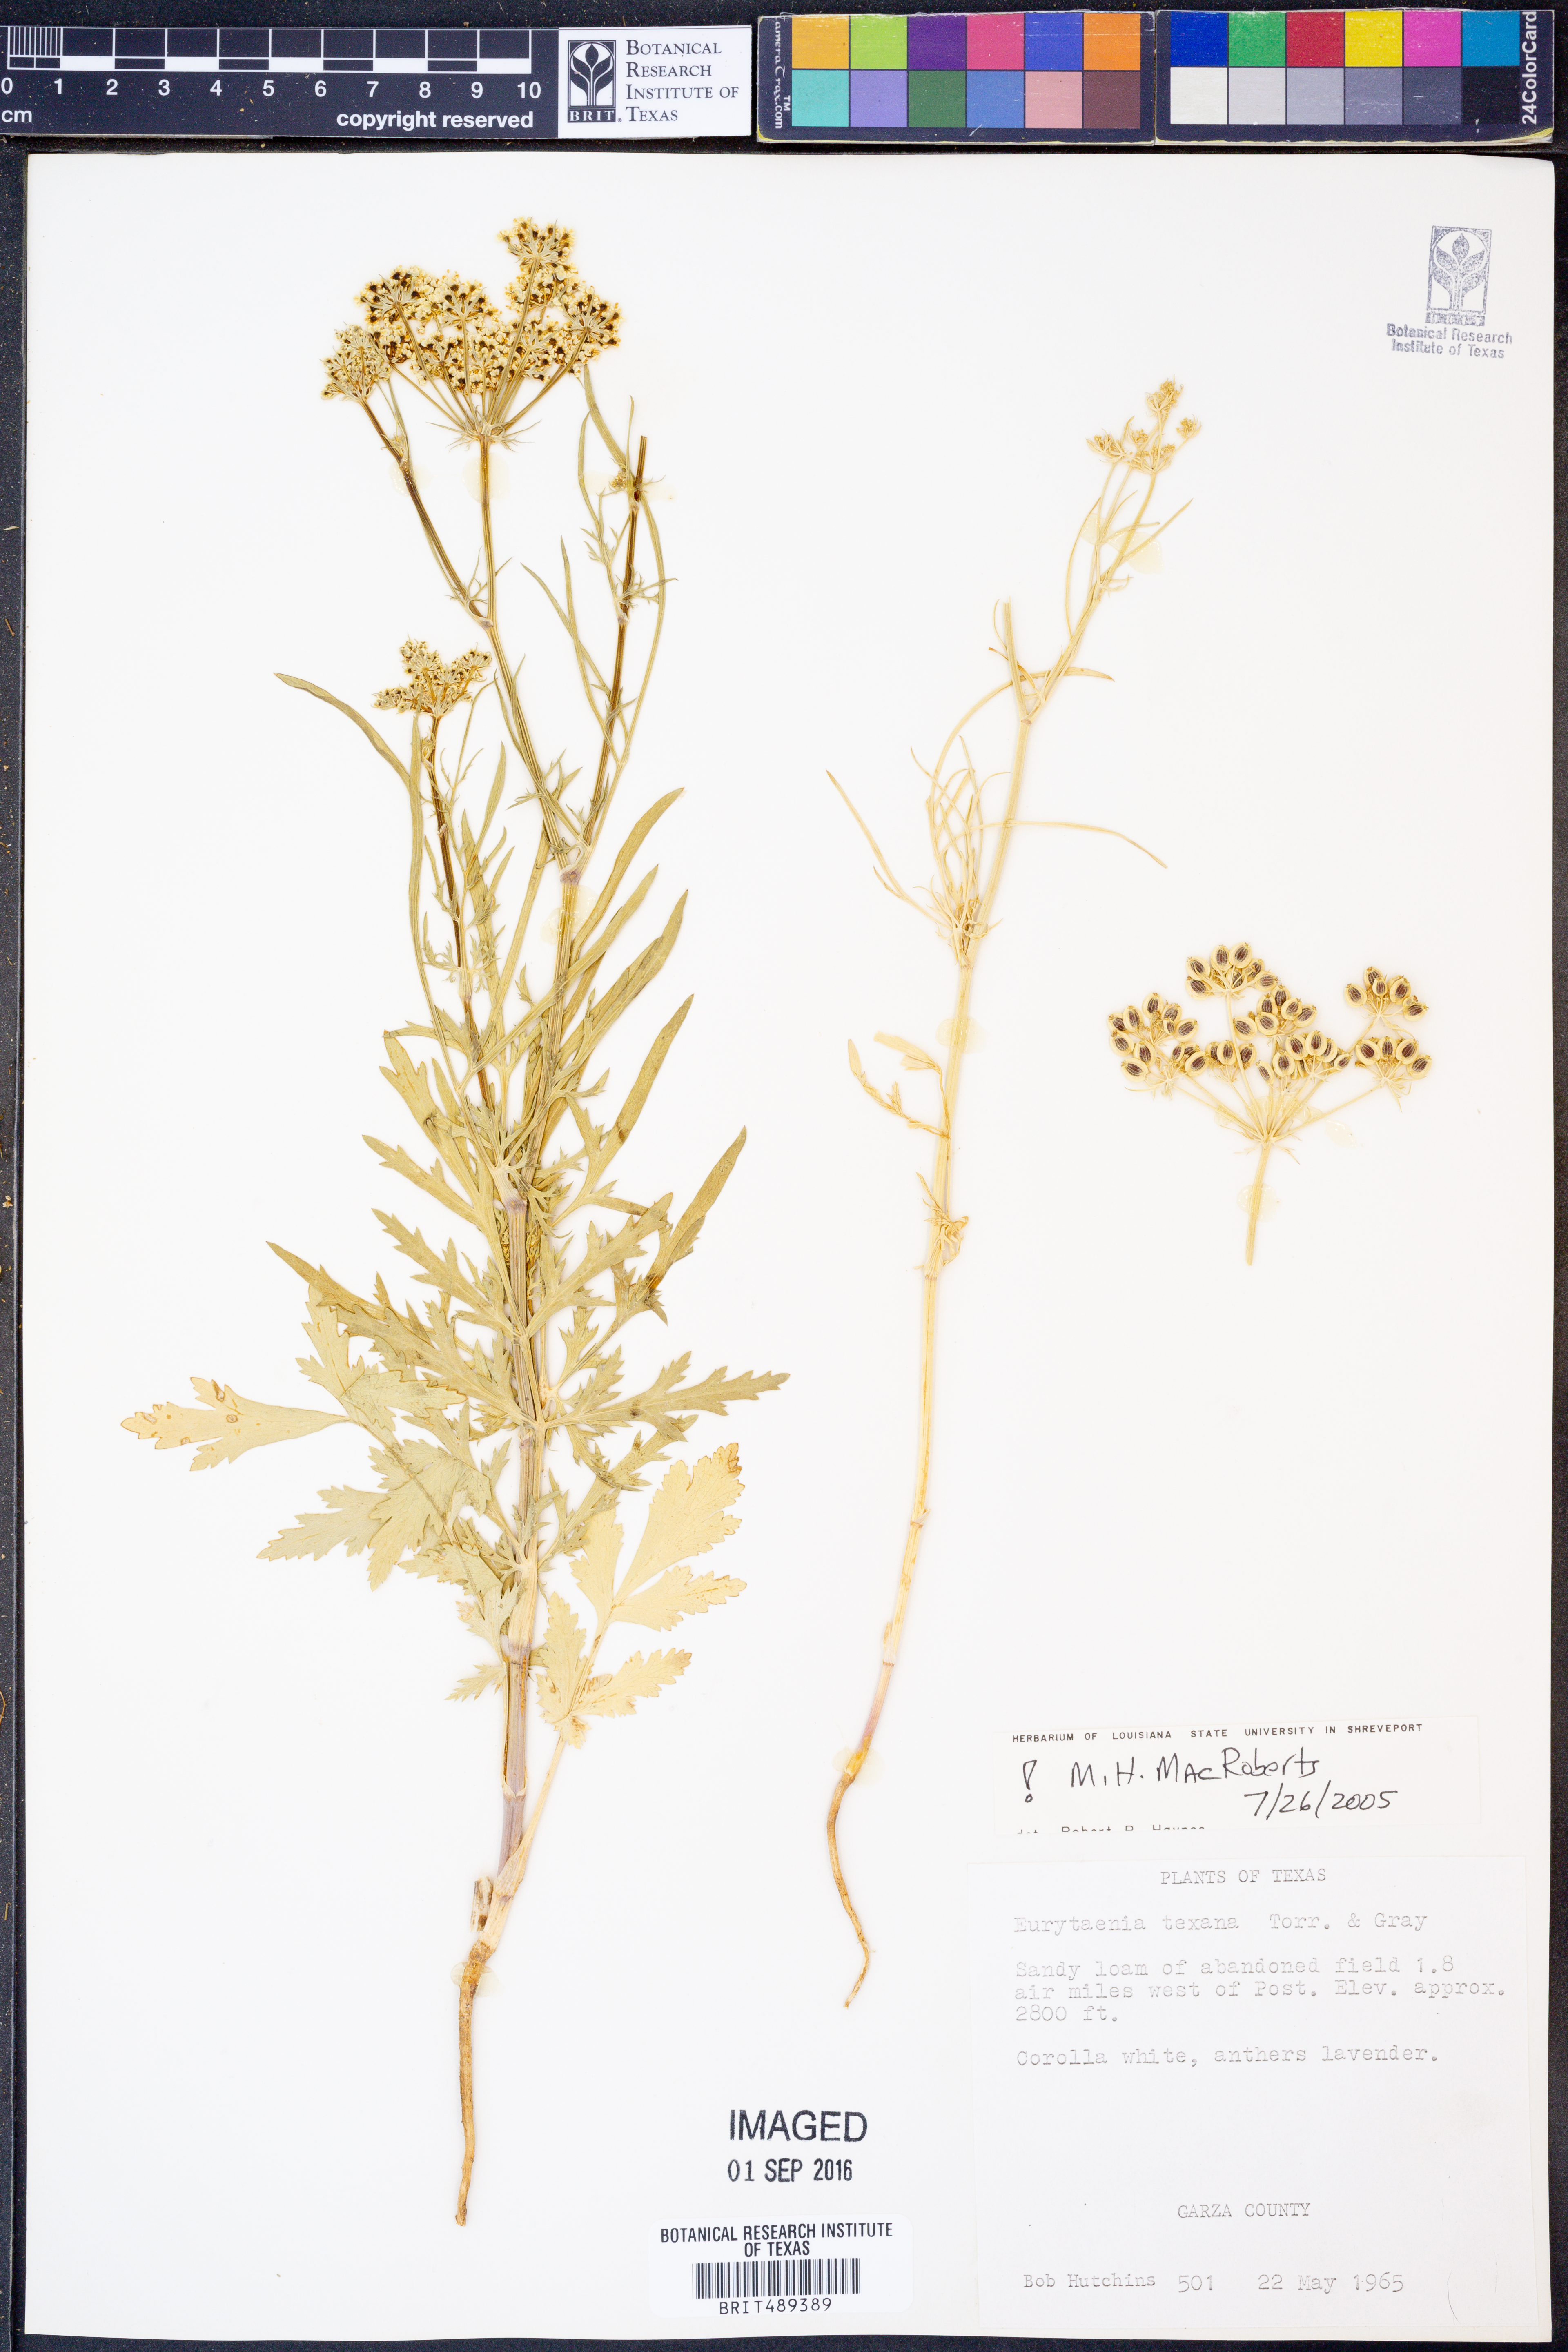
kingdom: Plantae
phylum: Tracheophyta
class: Magnoliopsida
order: Apiales
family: Apiaceae
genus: Eurytaenia
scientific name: Eurytaenia texana
